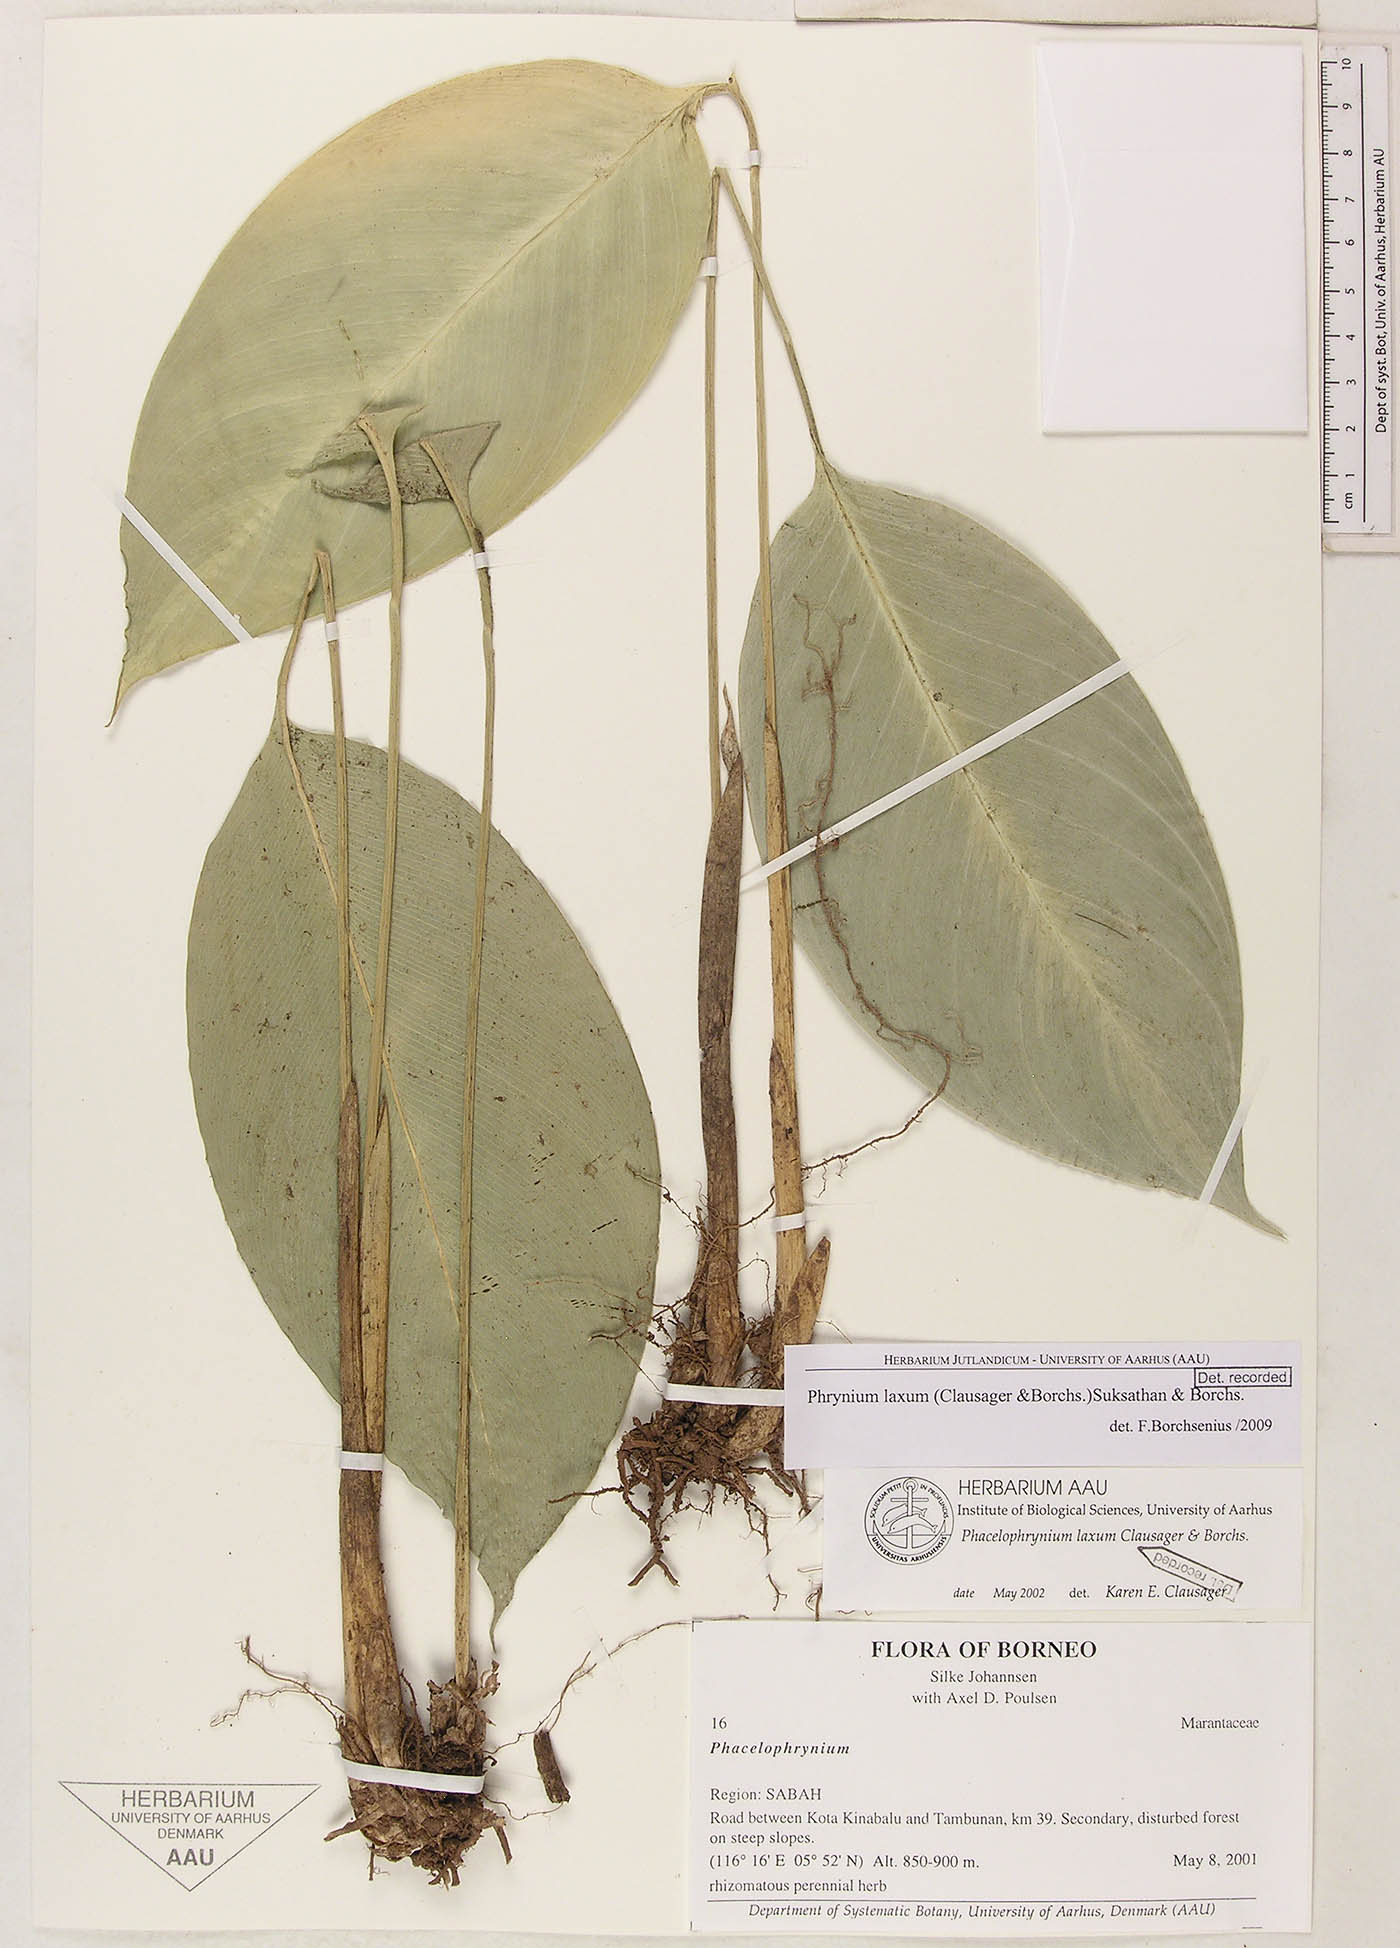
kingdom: Plantae
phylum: Tracheophyta
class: Liliopsida
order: Zingiberales
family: Marantaceae
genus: Phrynium
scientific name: Phrynium laxum
